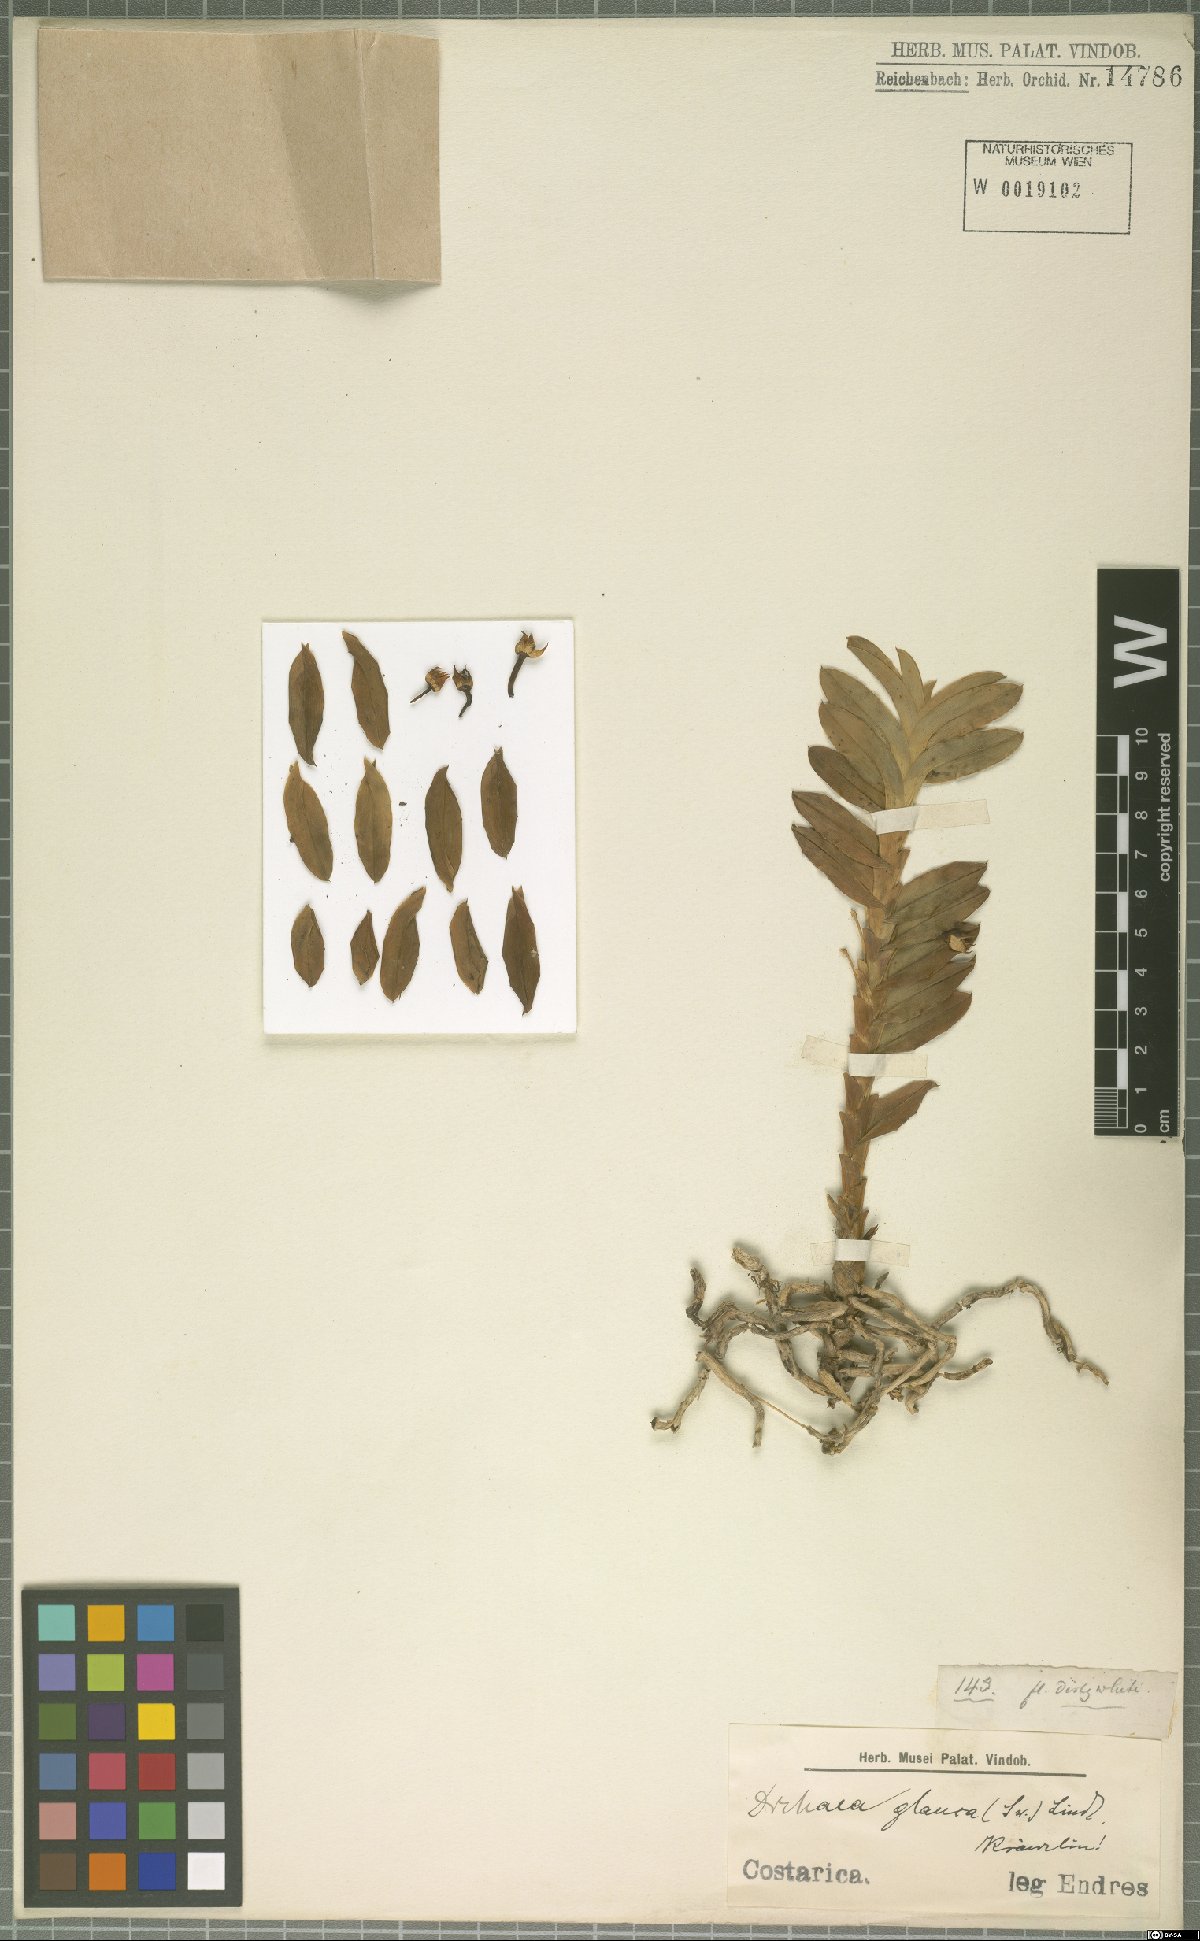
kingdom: Plantae
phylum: Tracheophyta
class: Liliopsida
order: Asparagales
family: Orchidaceae
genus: Dichaea
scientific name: Dichaea glauca
